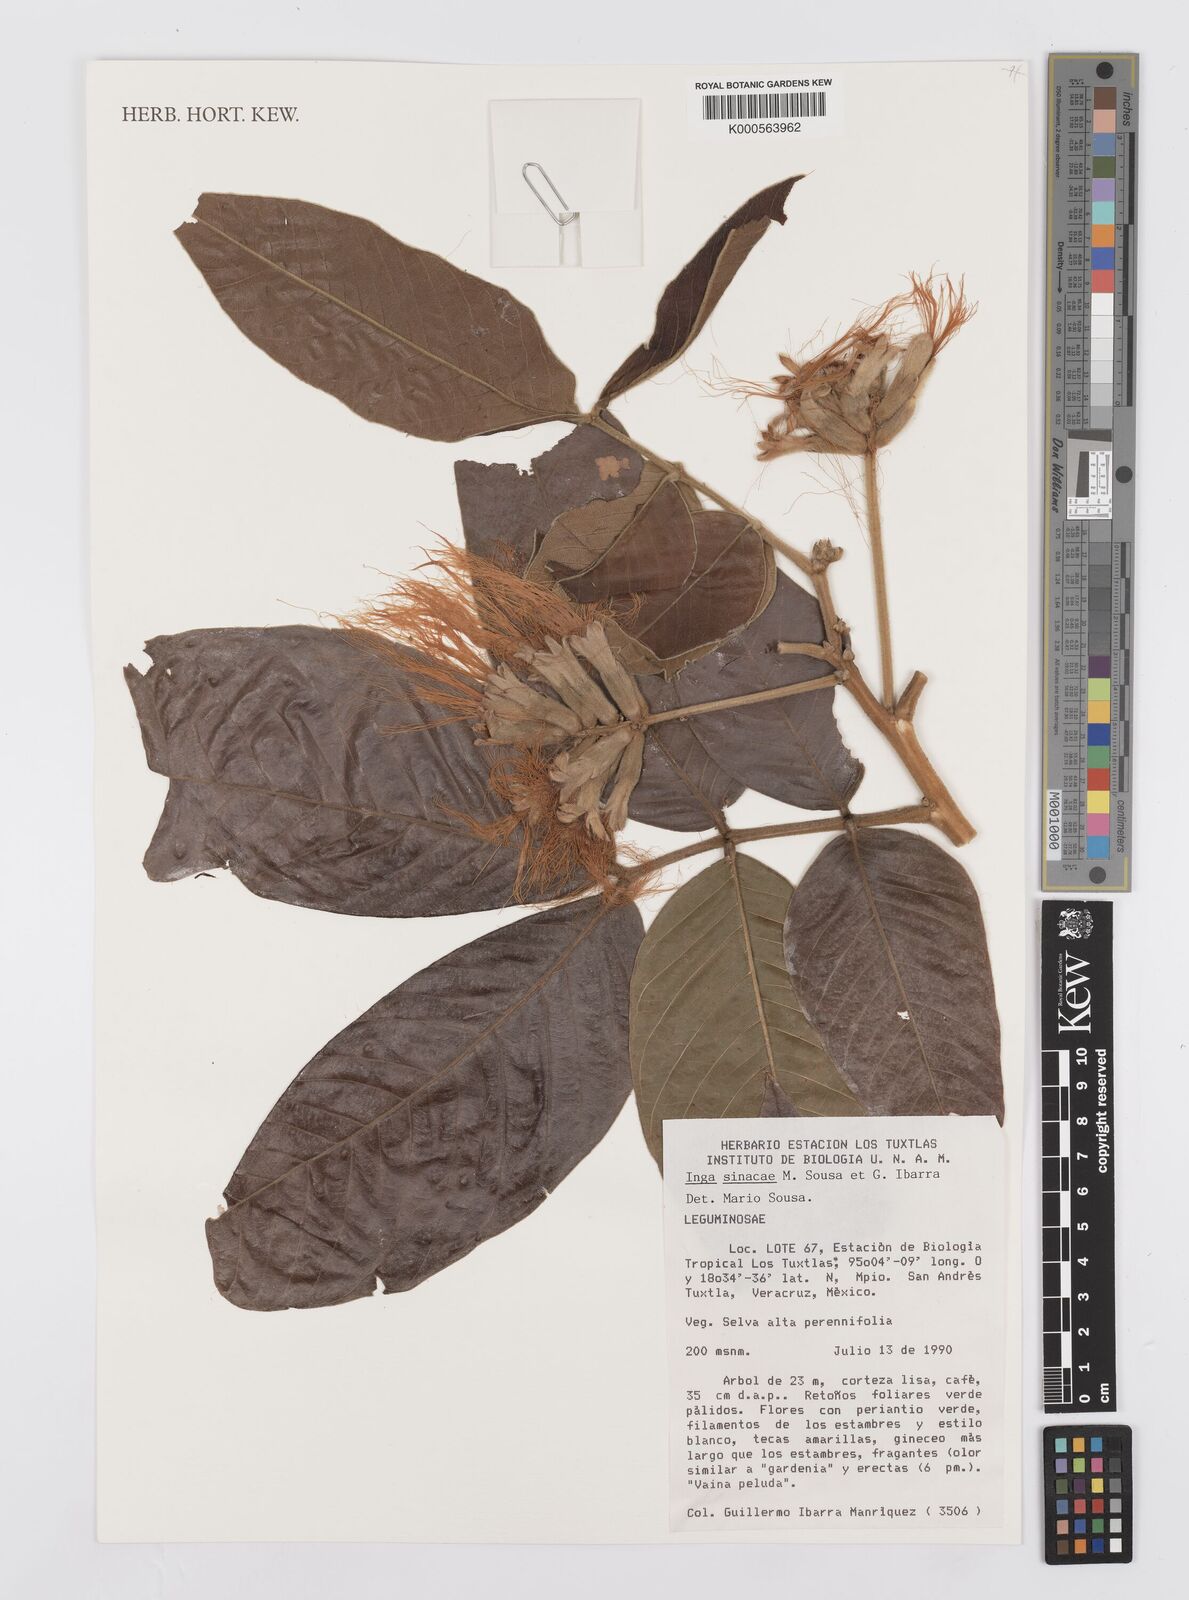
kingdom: Plantae
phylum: Tracheophyta
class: Magnoliopsida
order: Fabales
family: Fabaceae
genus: Inga
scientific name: Inga sinacae
